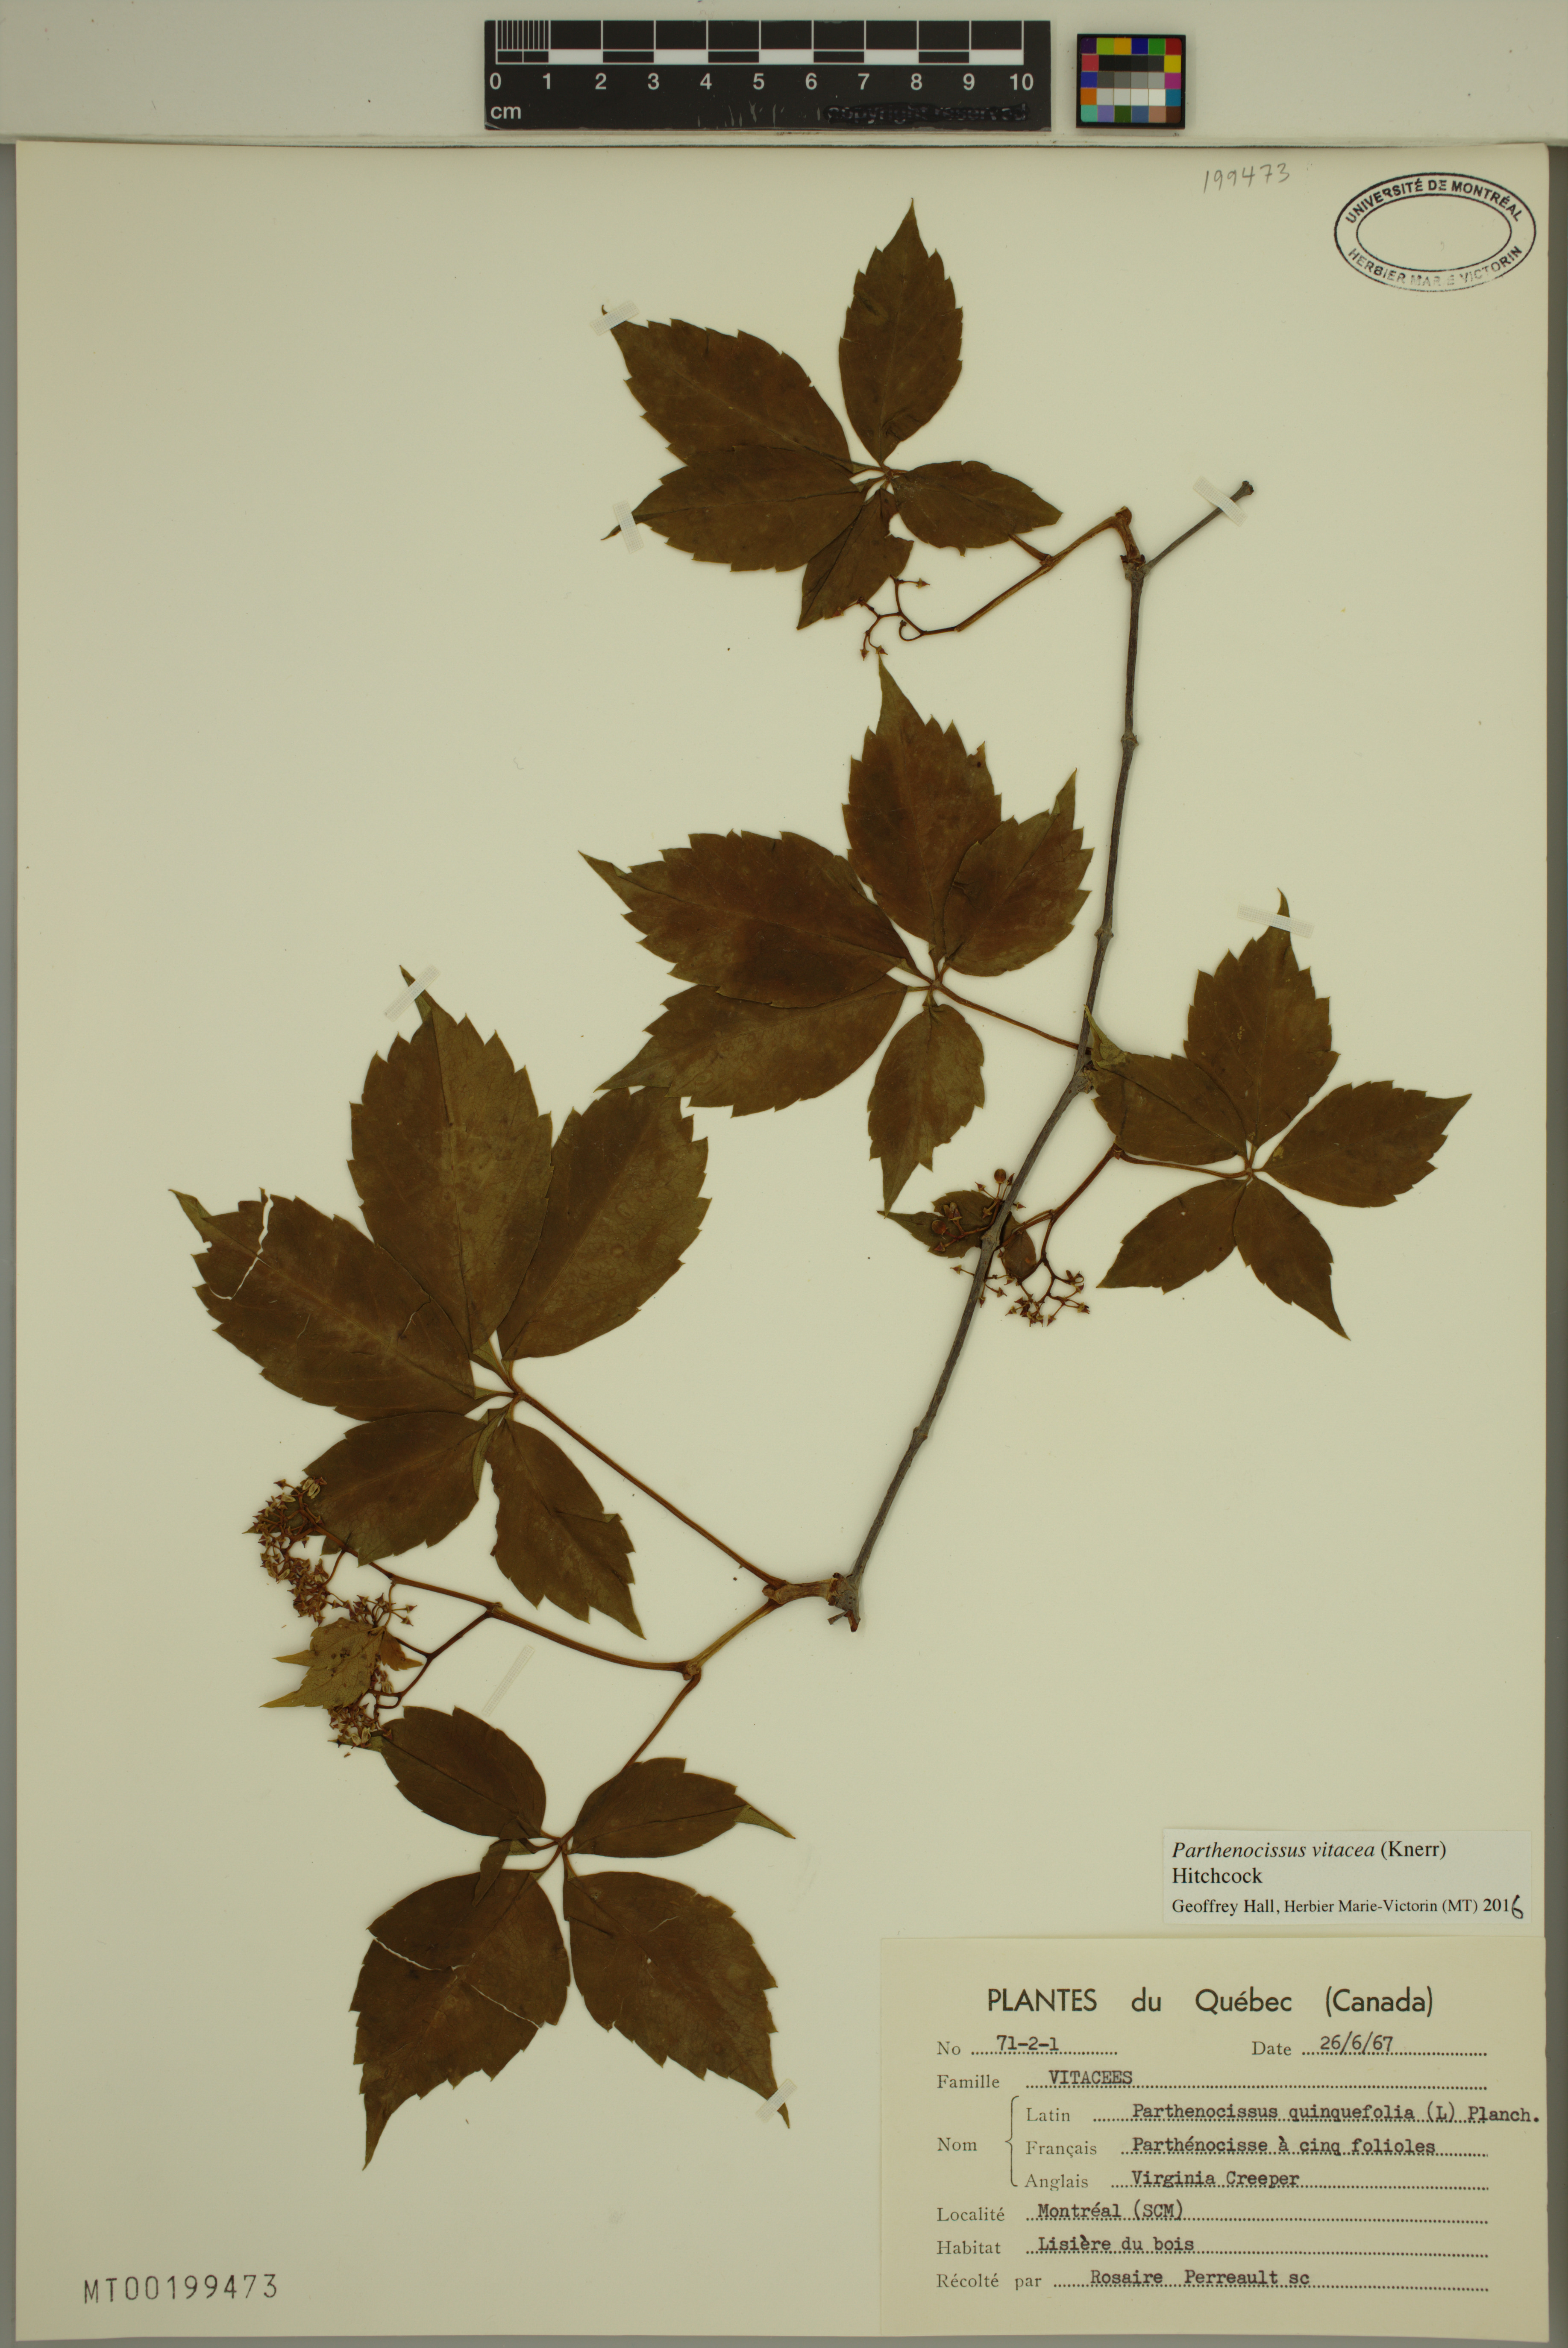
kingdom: Plantae
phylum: Tracheophyta
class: Magnoliopsida
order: Vitales
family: Vitaceae
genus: Parthenocissus
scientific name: Parthenocissus inserta
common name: False virginia-creeper
